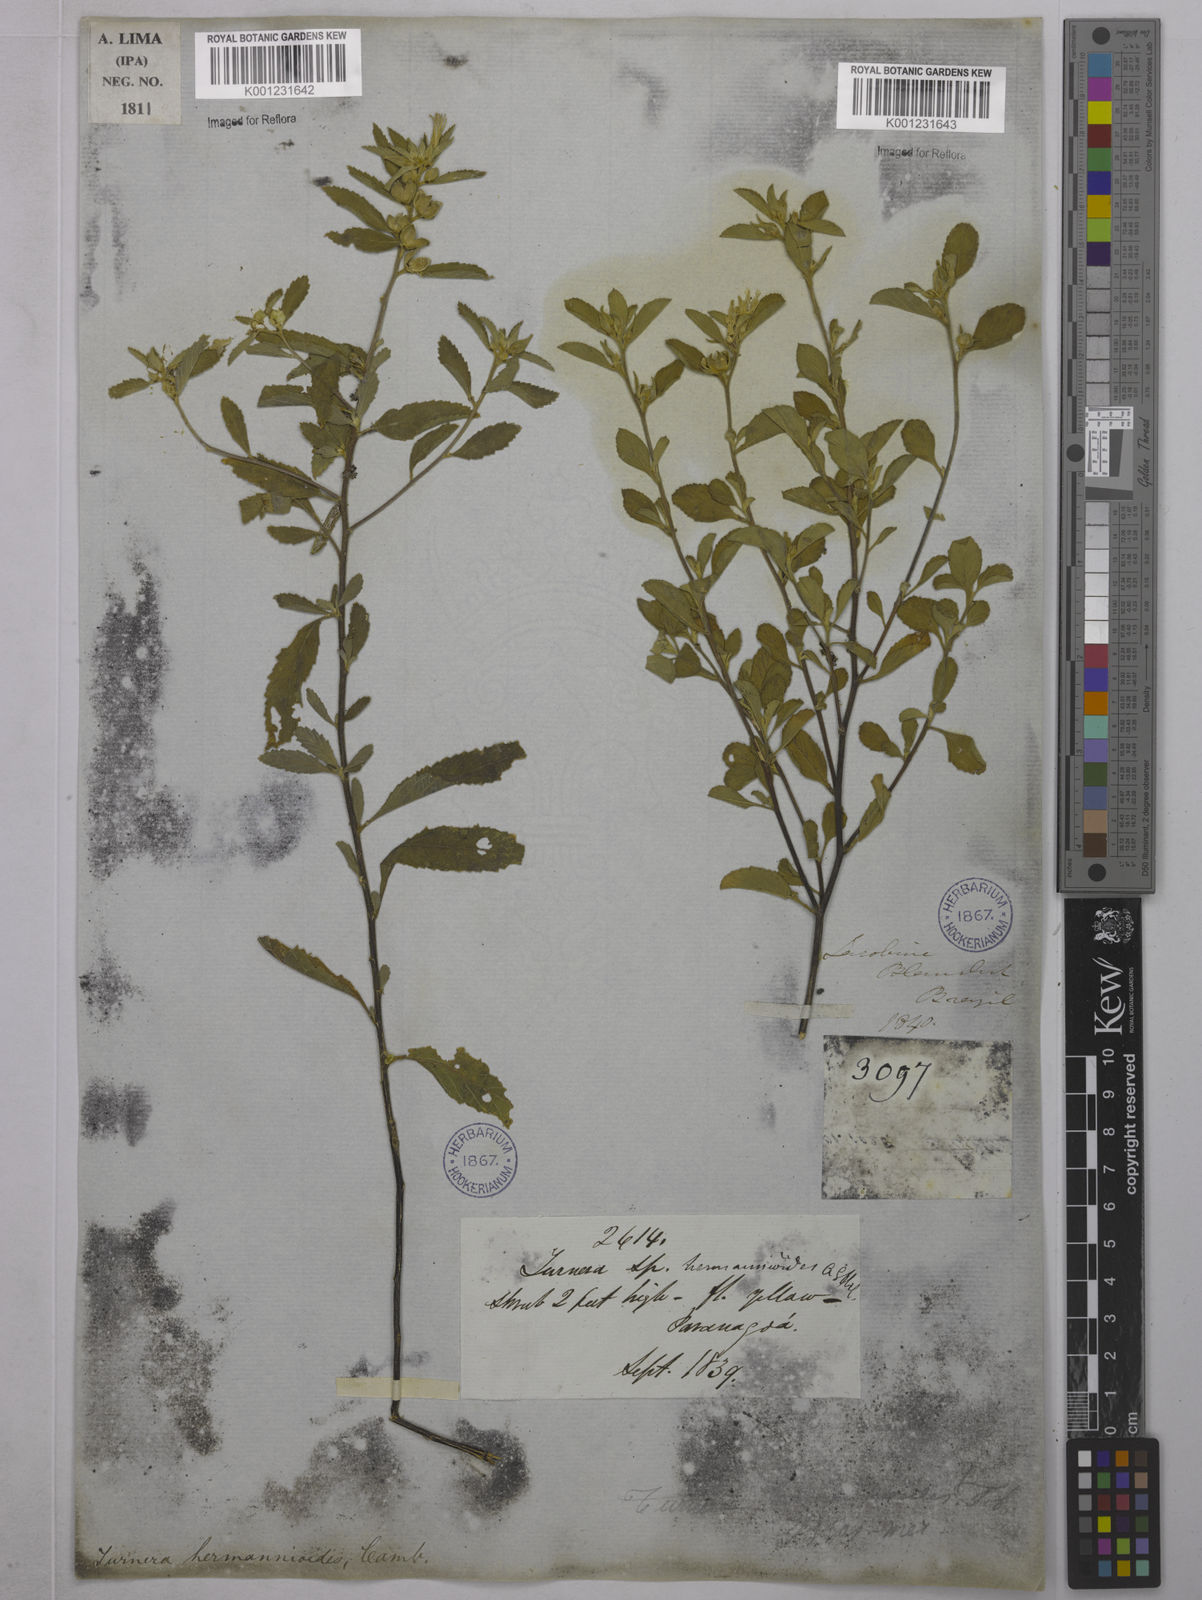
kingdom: Plantae
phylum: Tracheophyta
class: Magnoliopsida
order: Malpighiales
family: Turneraceae
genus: Turnera
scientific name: Turnera hermannioides
